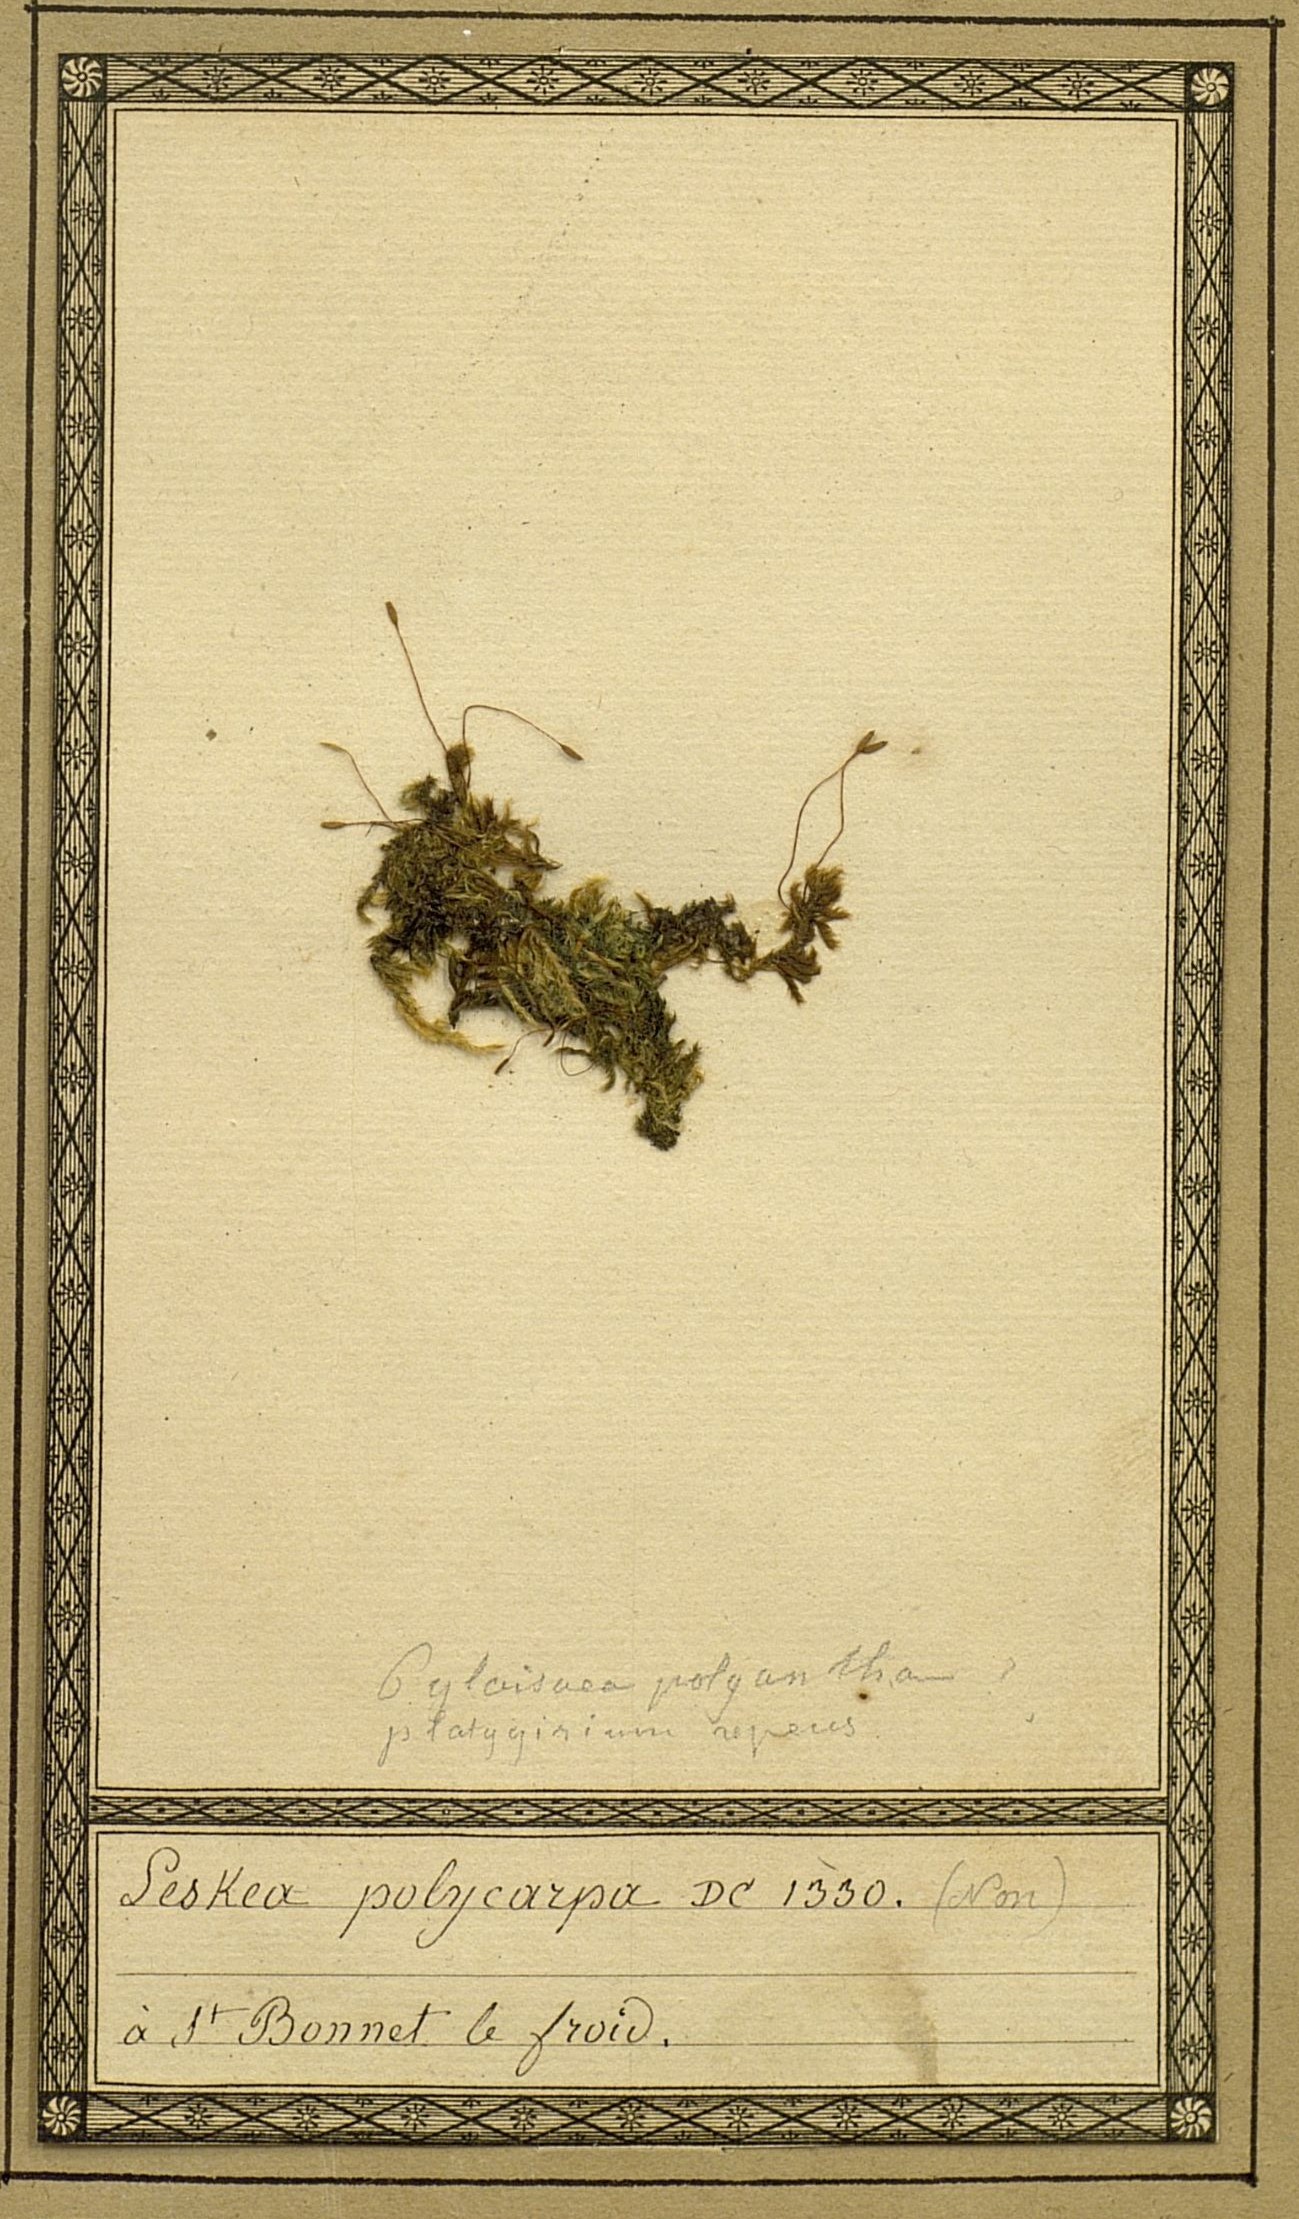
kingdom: Plantae
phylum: Bryophyta
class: Bryopsida
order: Hypnales
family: Leskeaceae
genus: Leskea
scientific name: Leskea polycarpa
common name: Many-fruited leske's moss
